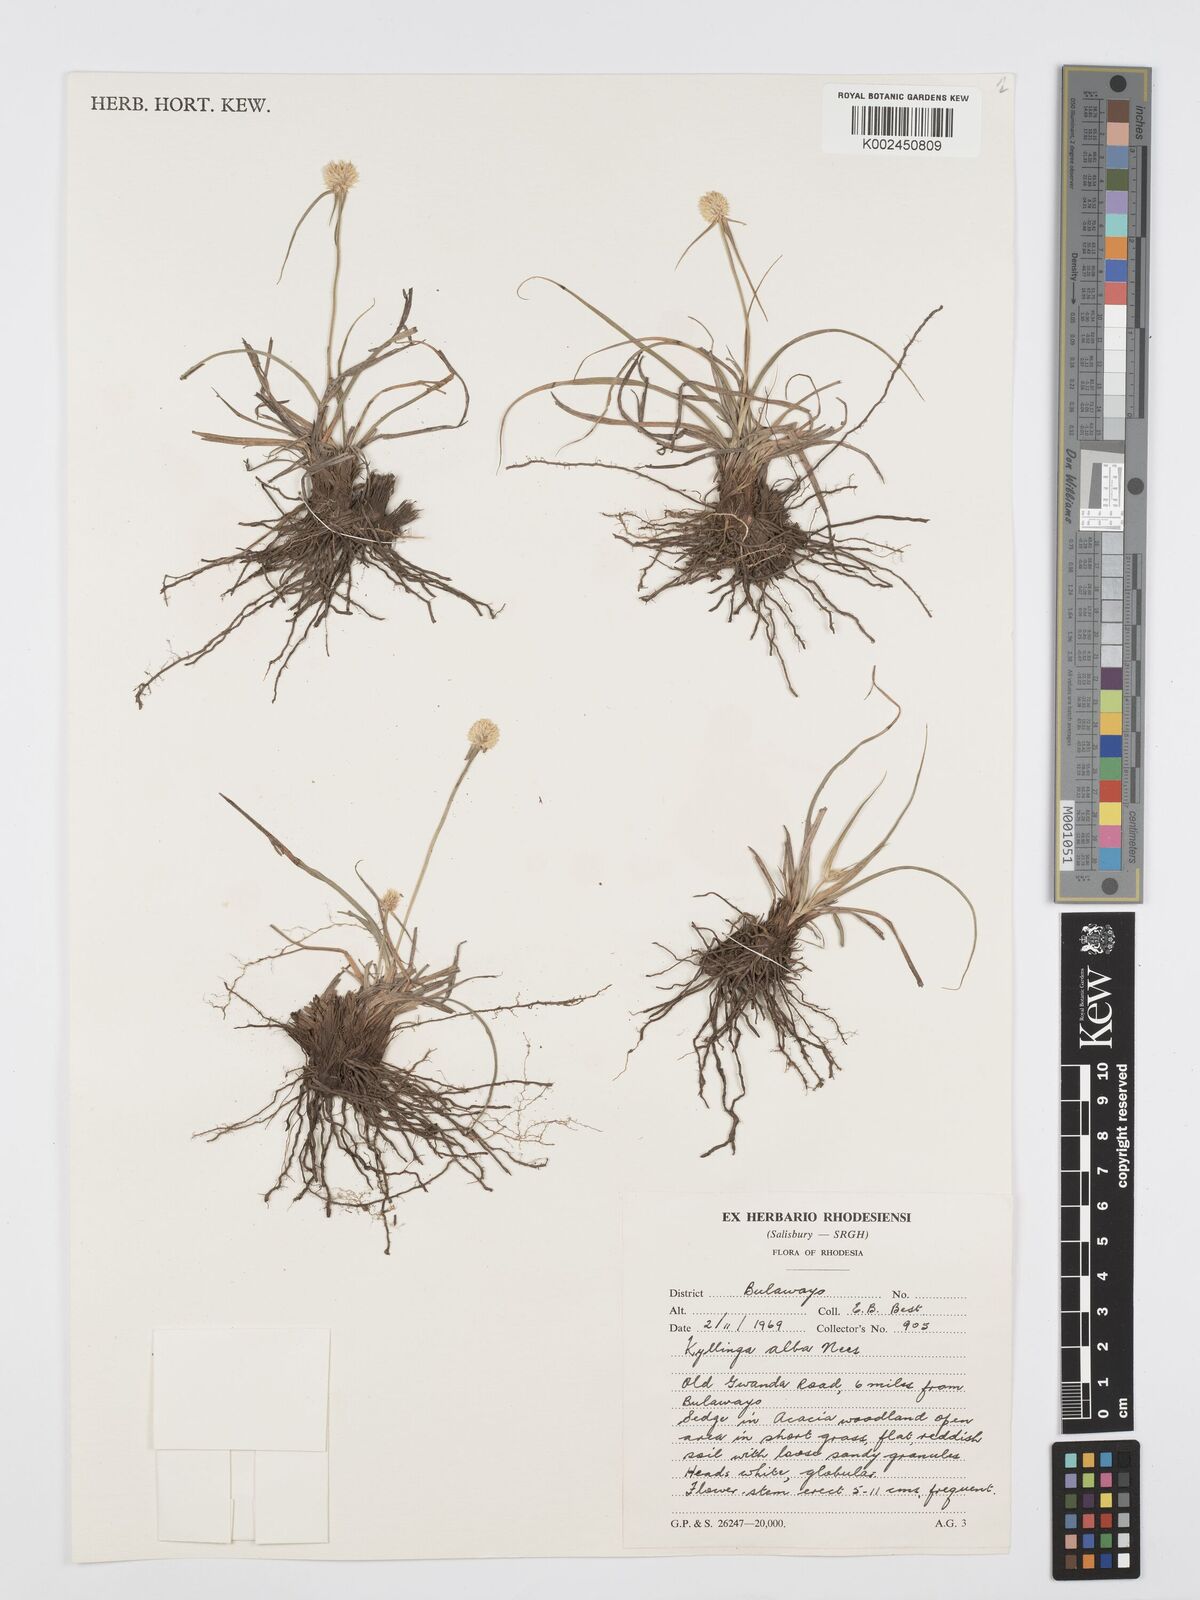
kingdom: Plantae
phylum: Tracheophyta
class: Liliopsida
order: Poales
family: Cyperaceae
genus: Cyperus
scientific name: Cyperus
